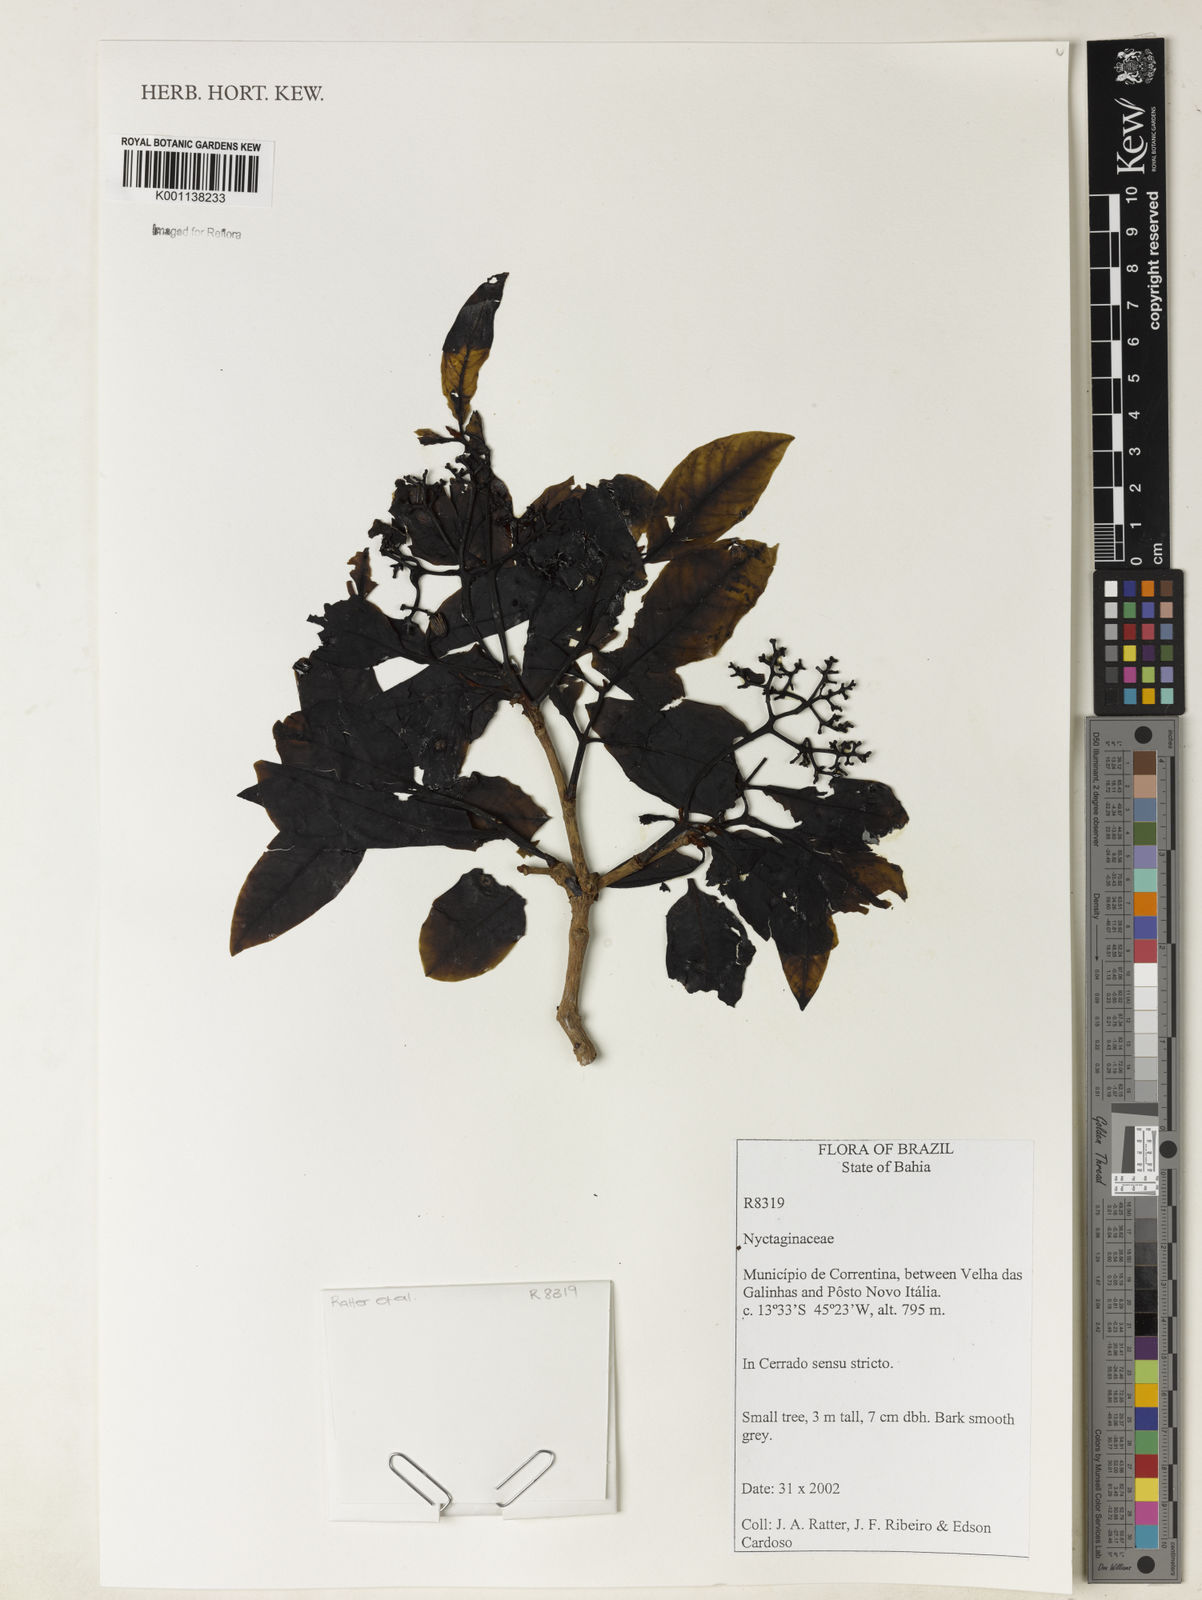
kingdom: Plantae
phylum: Tracheophyta
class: Magnoliopsida
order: Caryophyllales
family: Nyctaginaceae
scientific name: Nyctaginaceae
